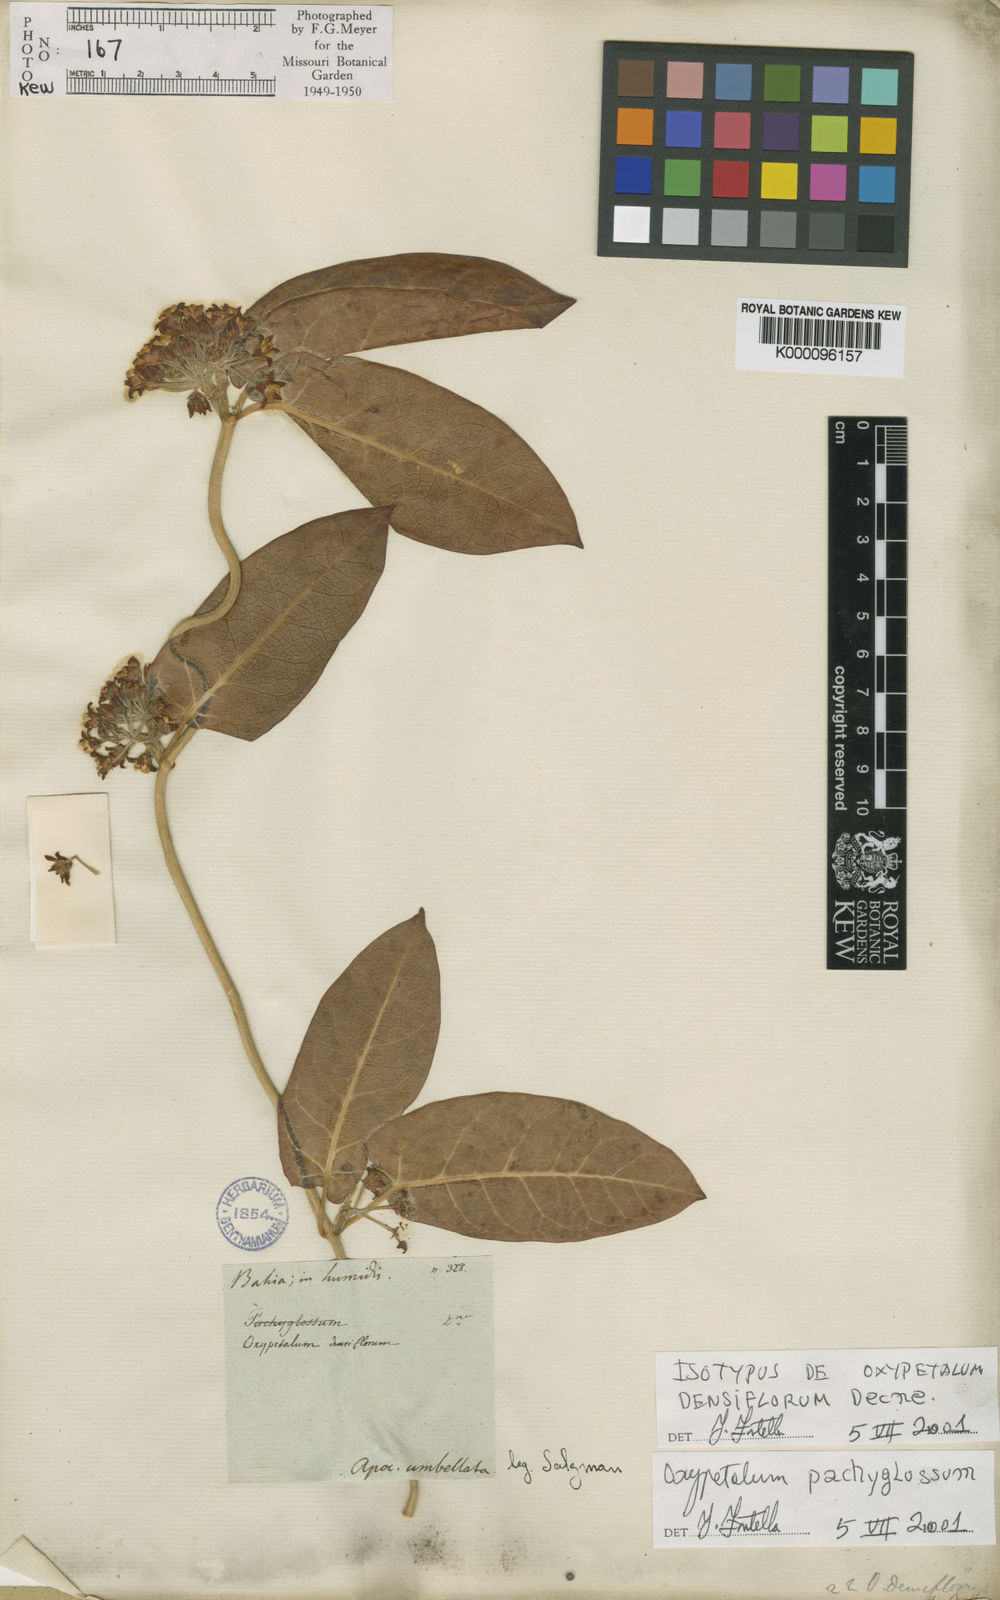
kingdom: Plantae
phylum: Tracheophyta
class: Magnoliopsida
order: Gentianales
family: Apocynaceae
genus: Oxypetalum
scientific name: Oxypetalum pachyglossum
